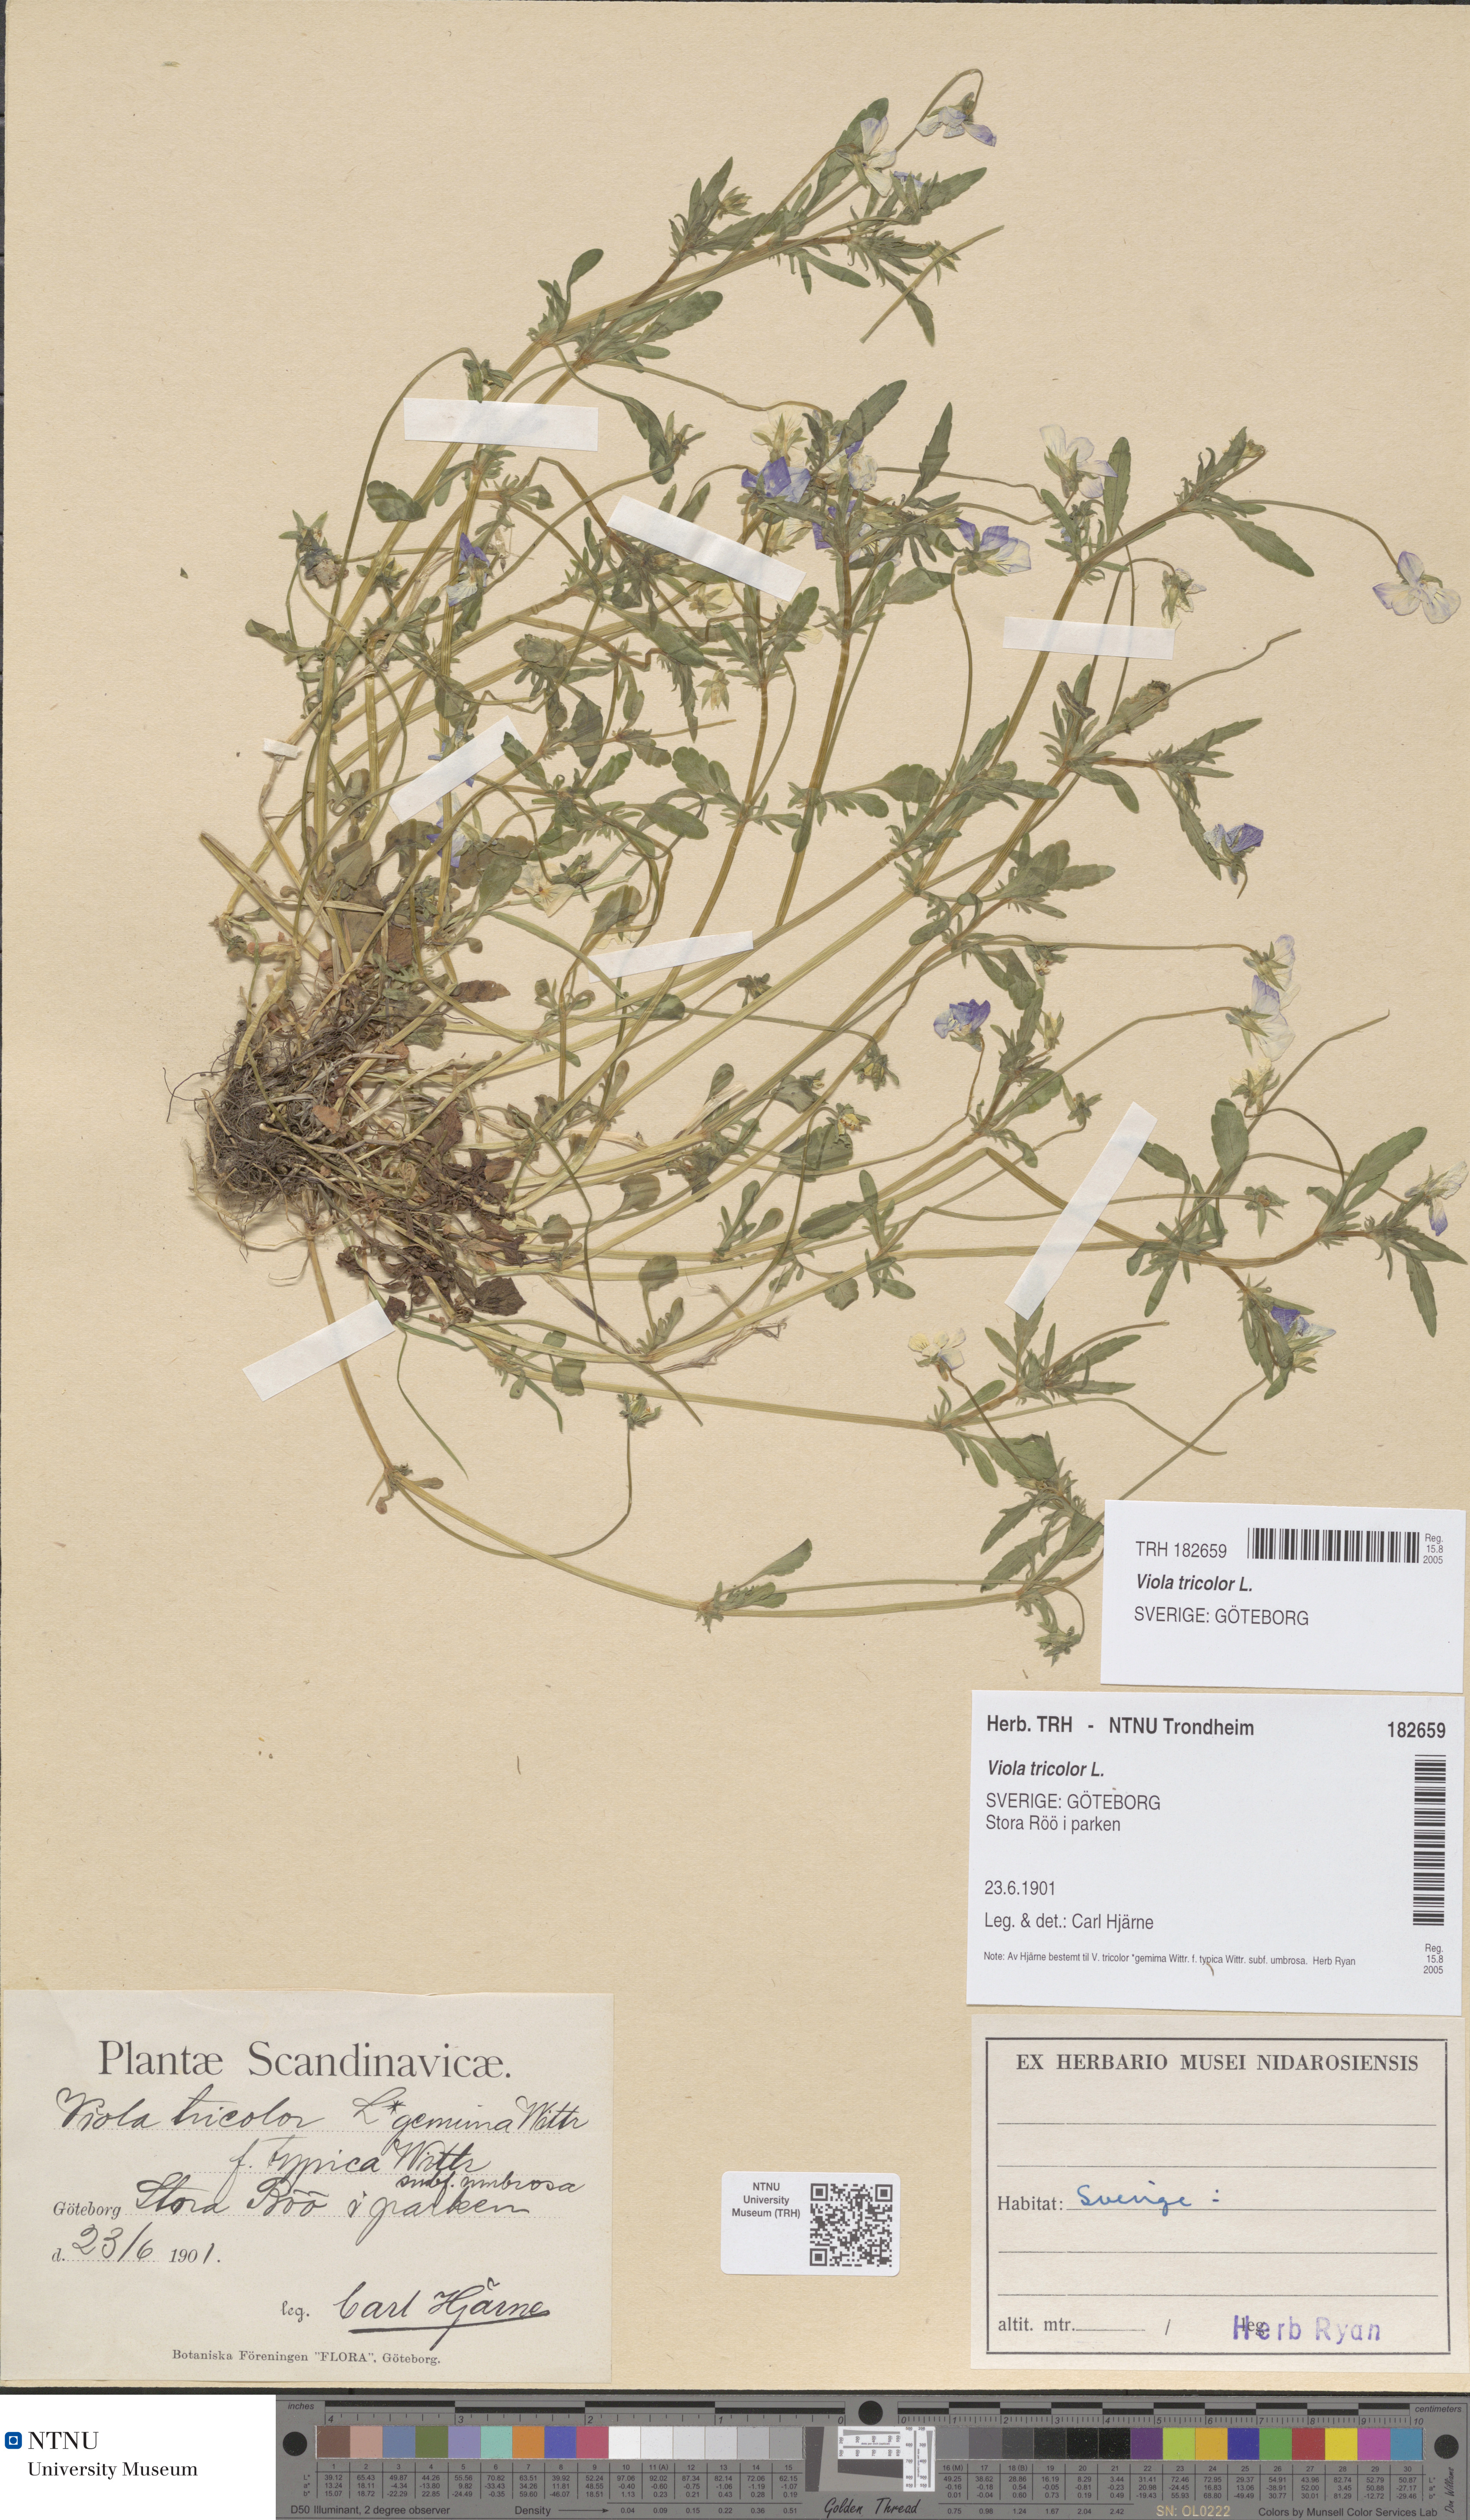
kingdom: Plantae
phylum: Tracheophyta
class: Magnoliopsida
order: Malpighiales
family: Violaceae
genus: Viola
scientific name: Viola tricolor
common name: Pansy
